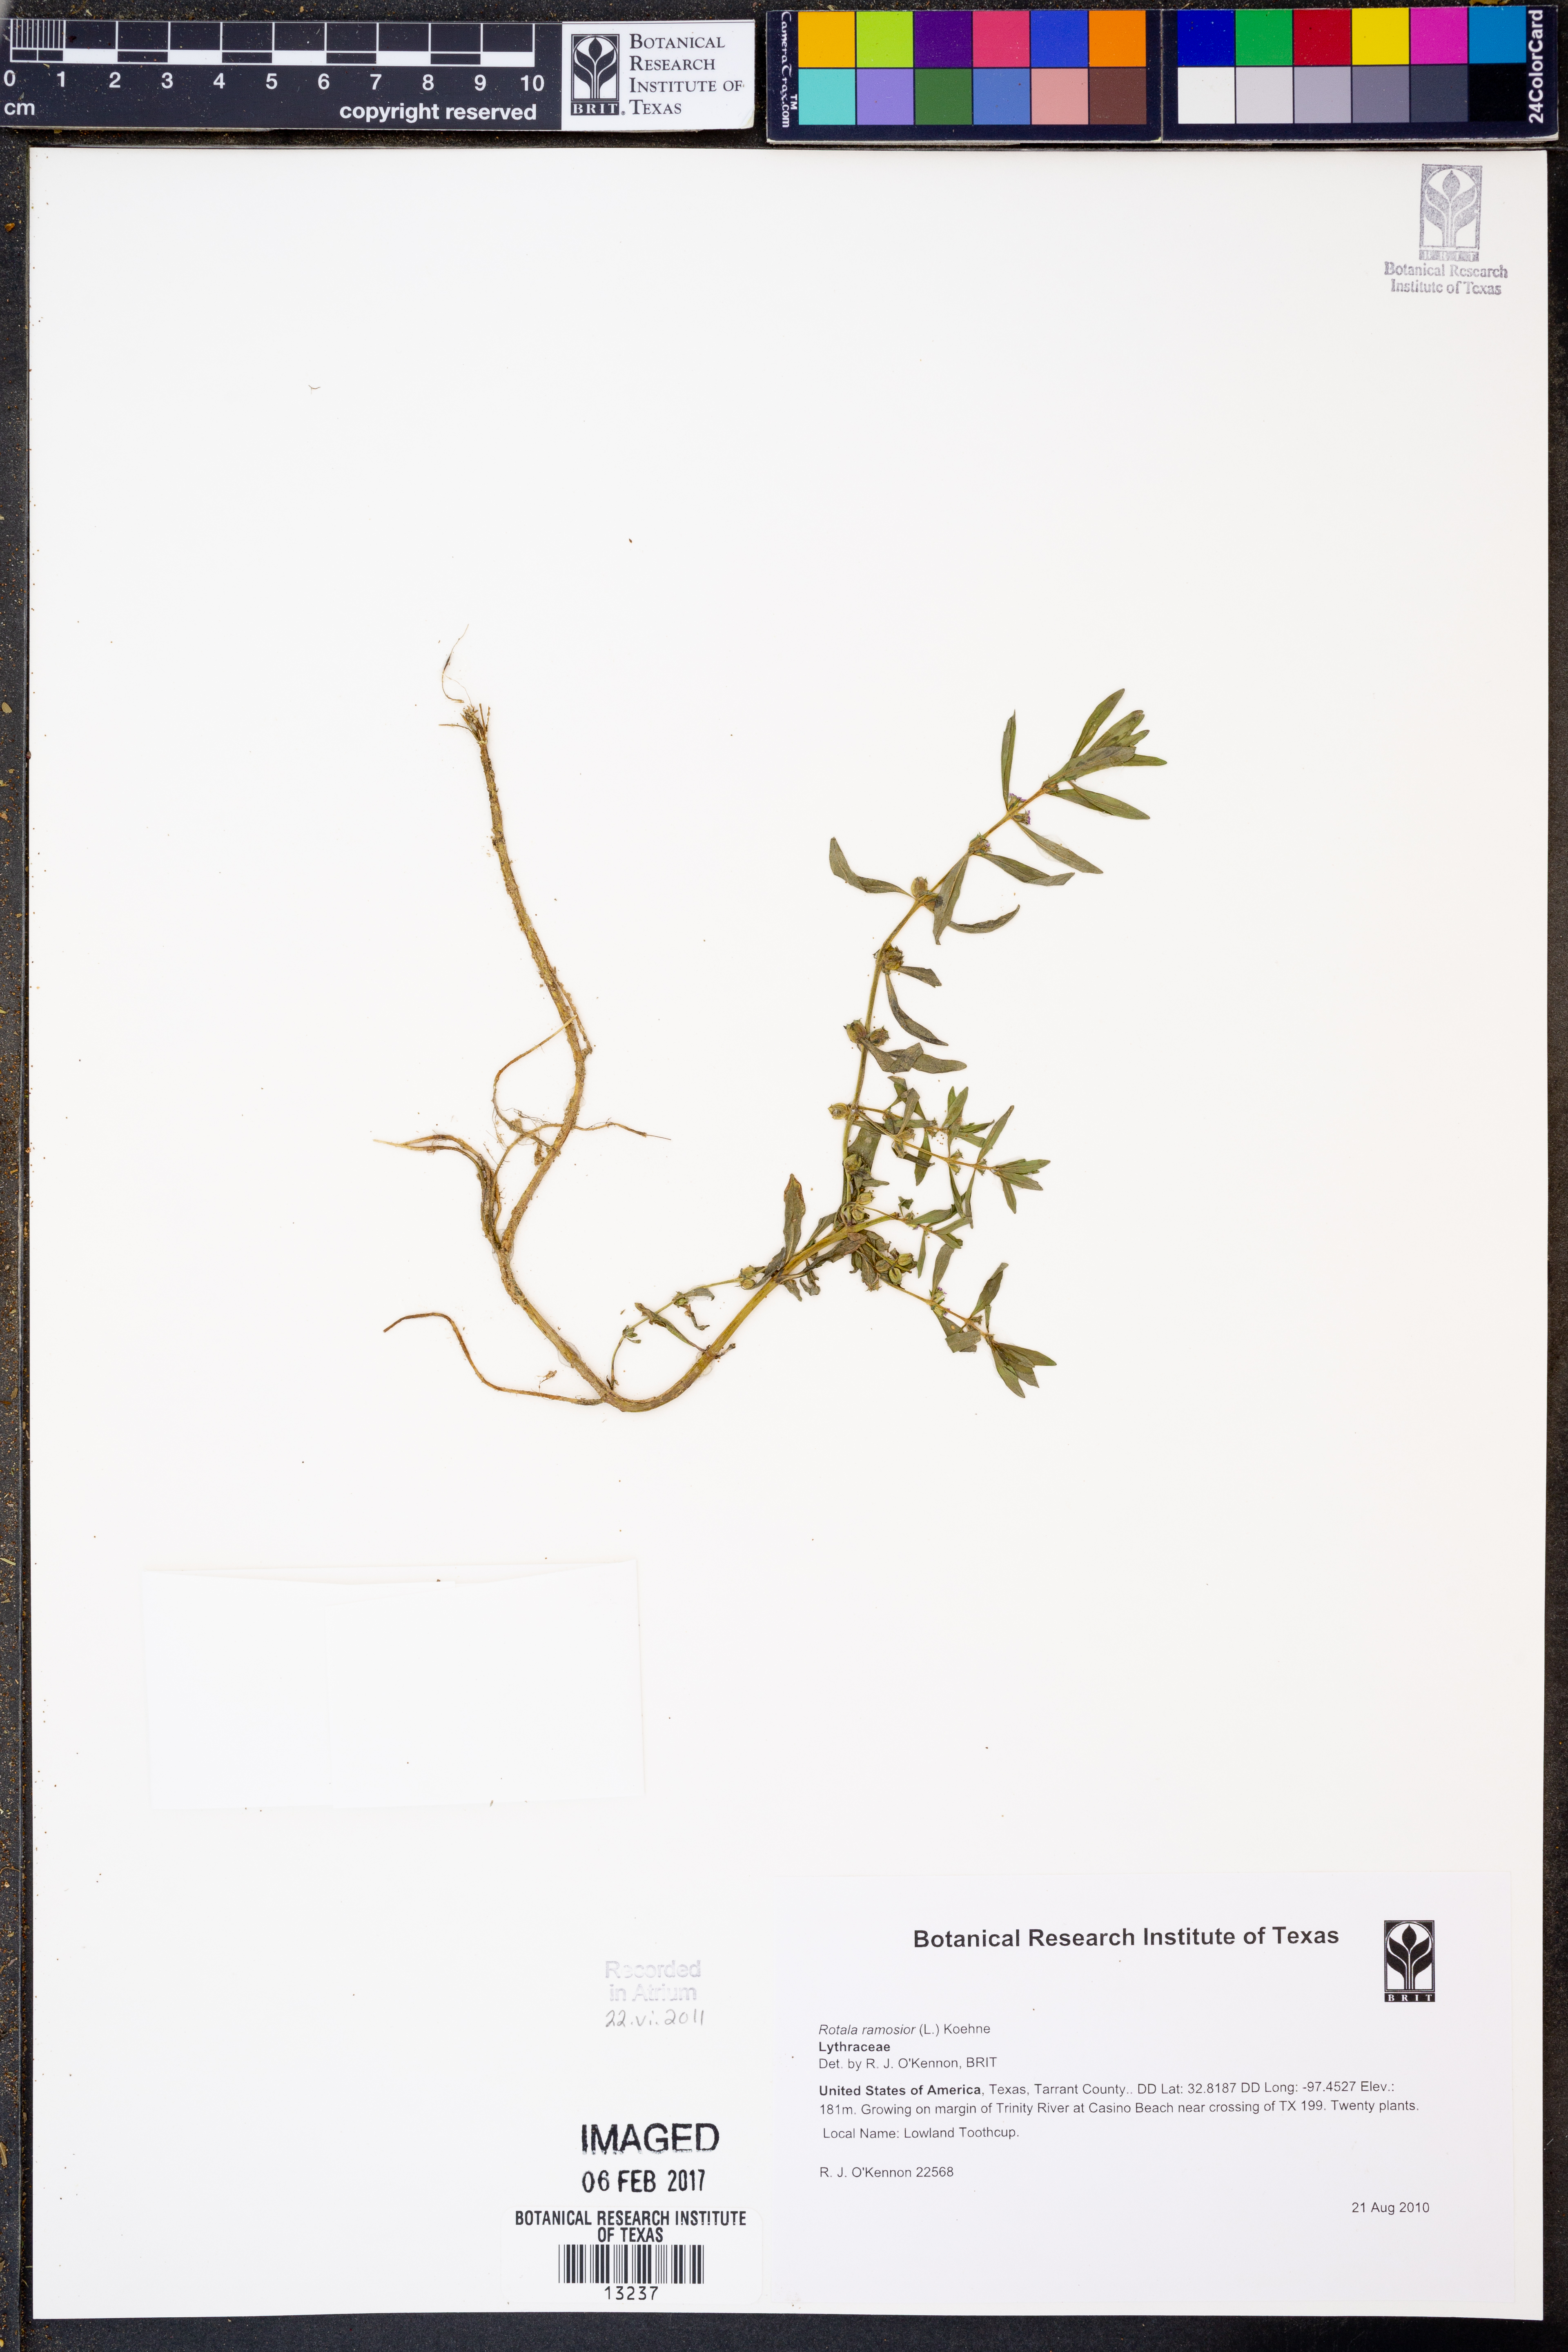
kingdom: Plantae
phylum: Tracheophyta
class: Magnoliopsida
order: Myrtales
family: Lythraceae
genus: Rotala
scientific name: Rotala ramosior
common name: Lowland rotala
